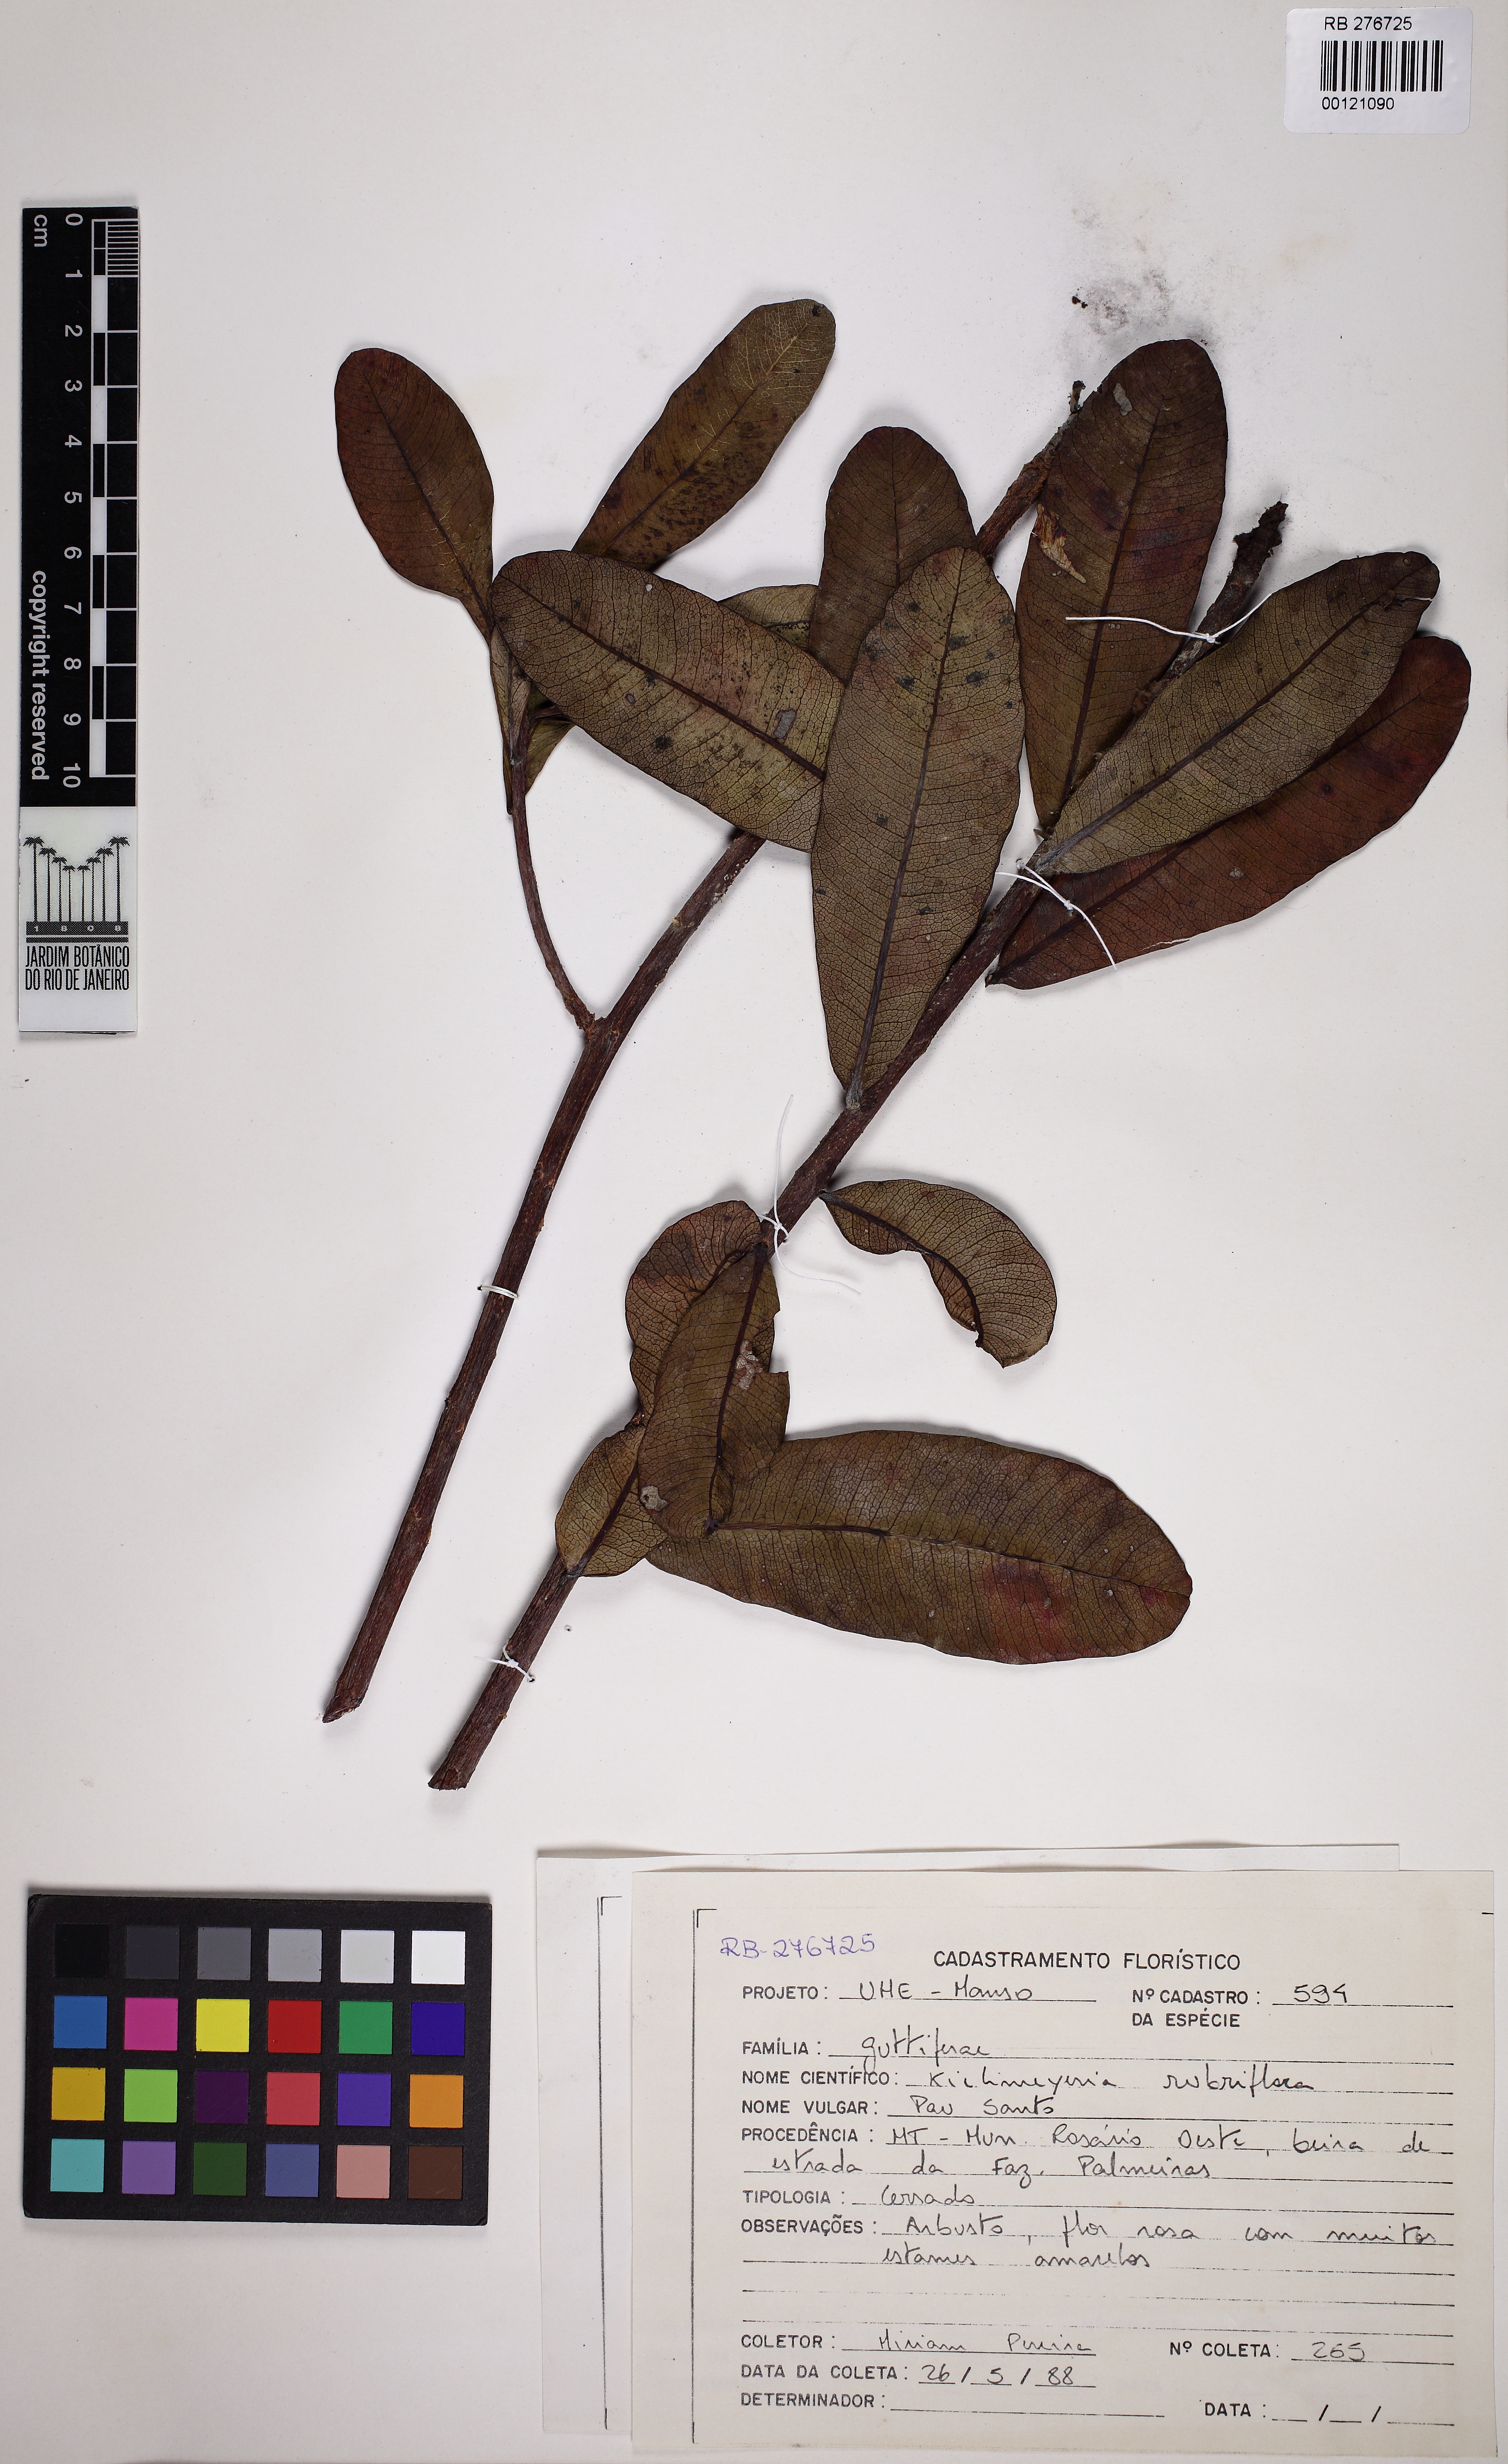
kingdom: Plantae
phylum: Tracheophyta
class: Magnoliopsida
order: Malpighiales
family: Calophyllaceae
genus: Kielmeyera
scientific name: Kielmeyera rubriflora
